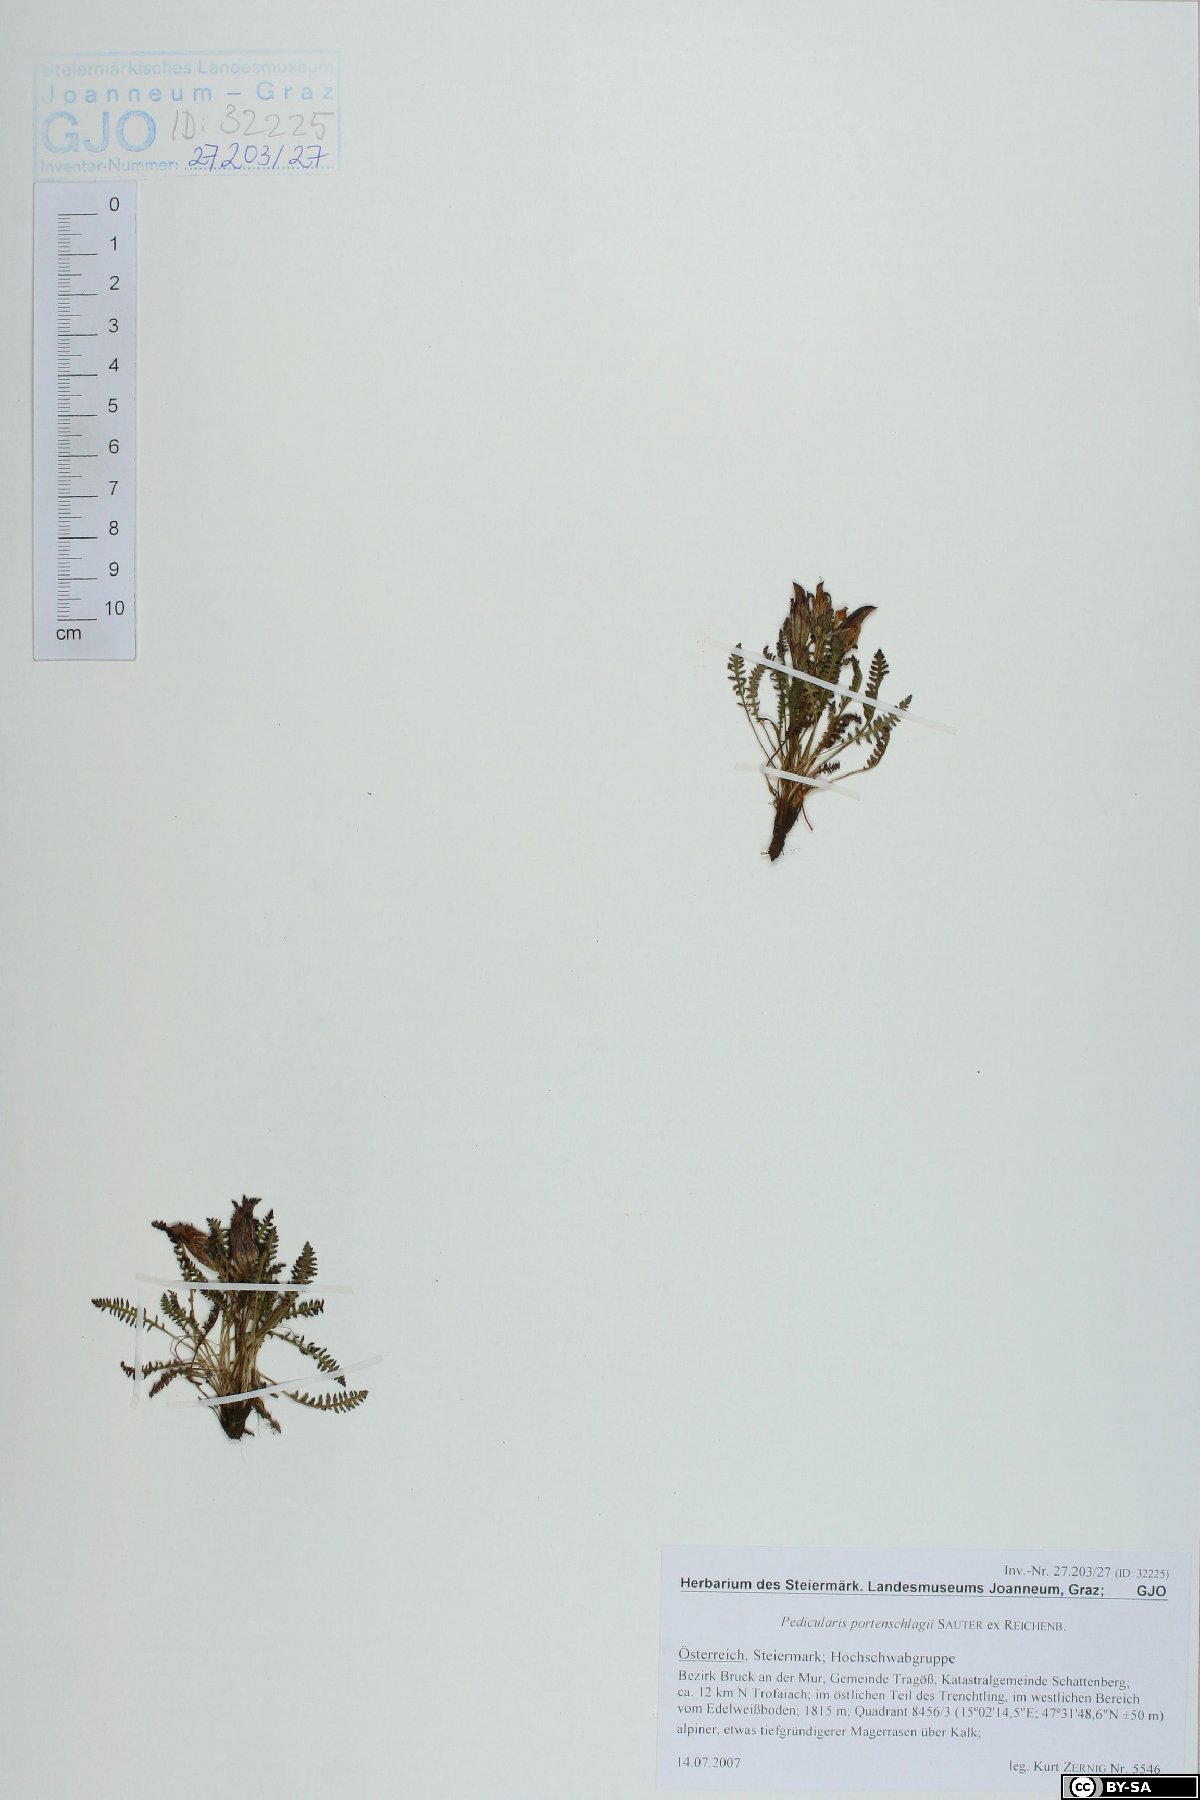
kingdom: Plantae
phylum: Tracheophyta
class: Magnoliopsida
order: Lamiales
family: Orobanchaceae
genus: Pedicularis
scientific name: Pedicularis portenschlagii
